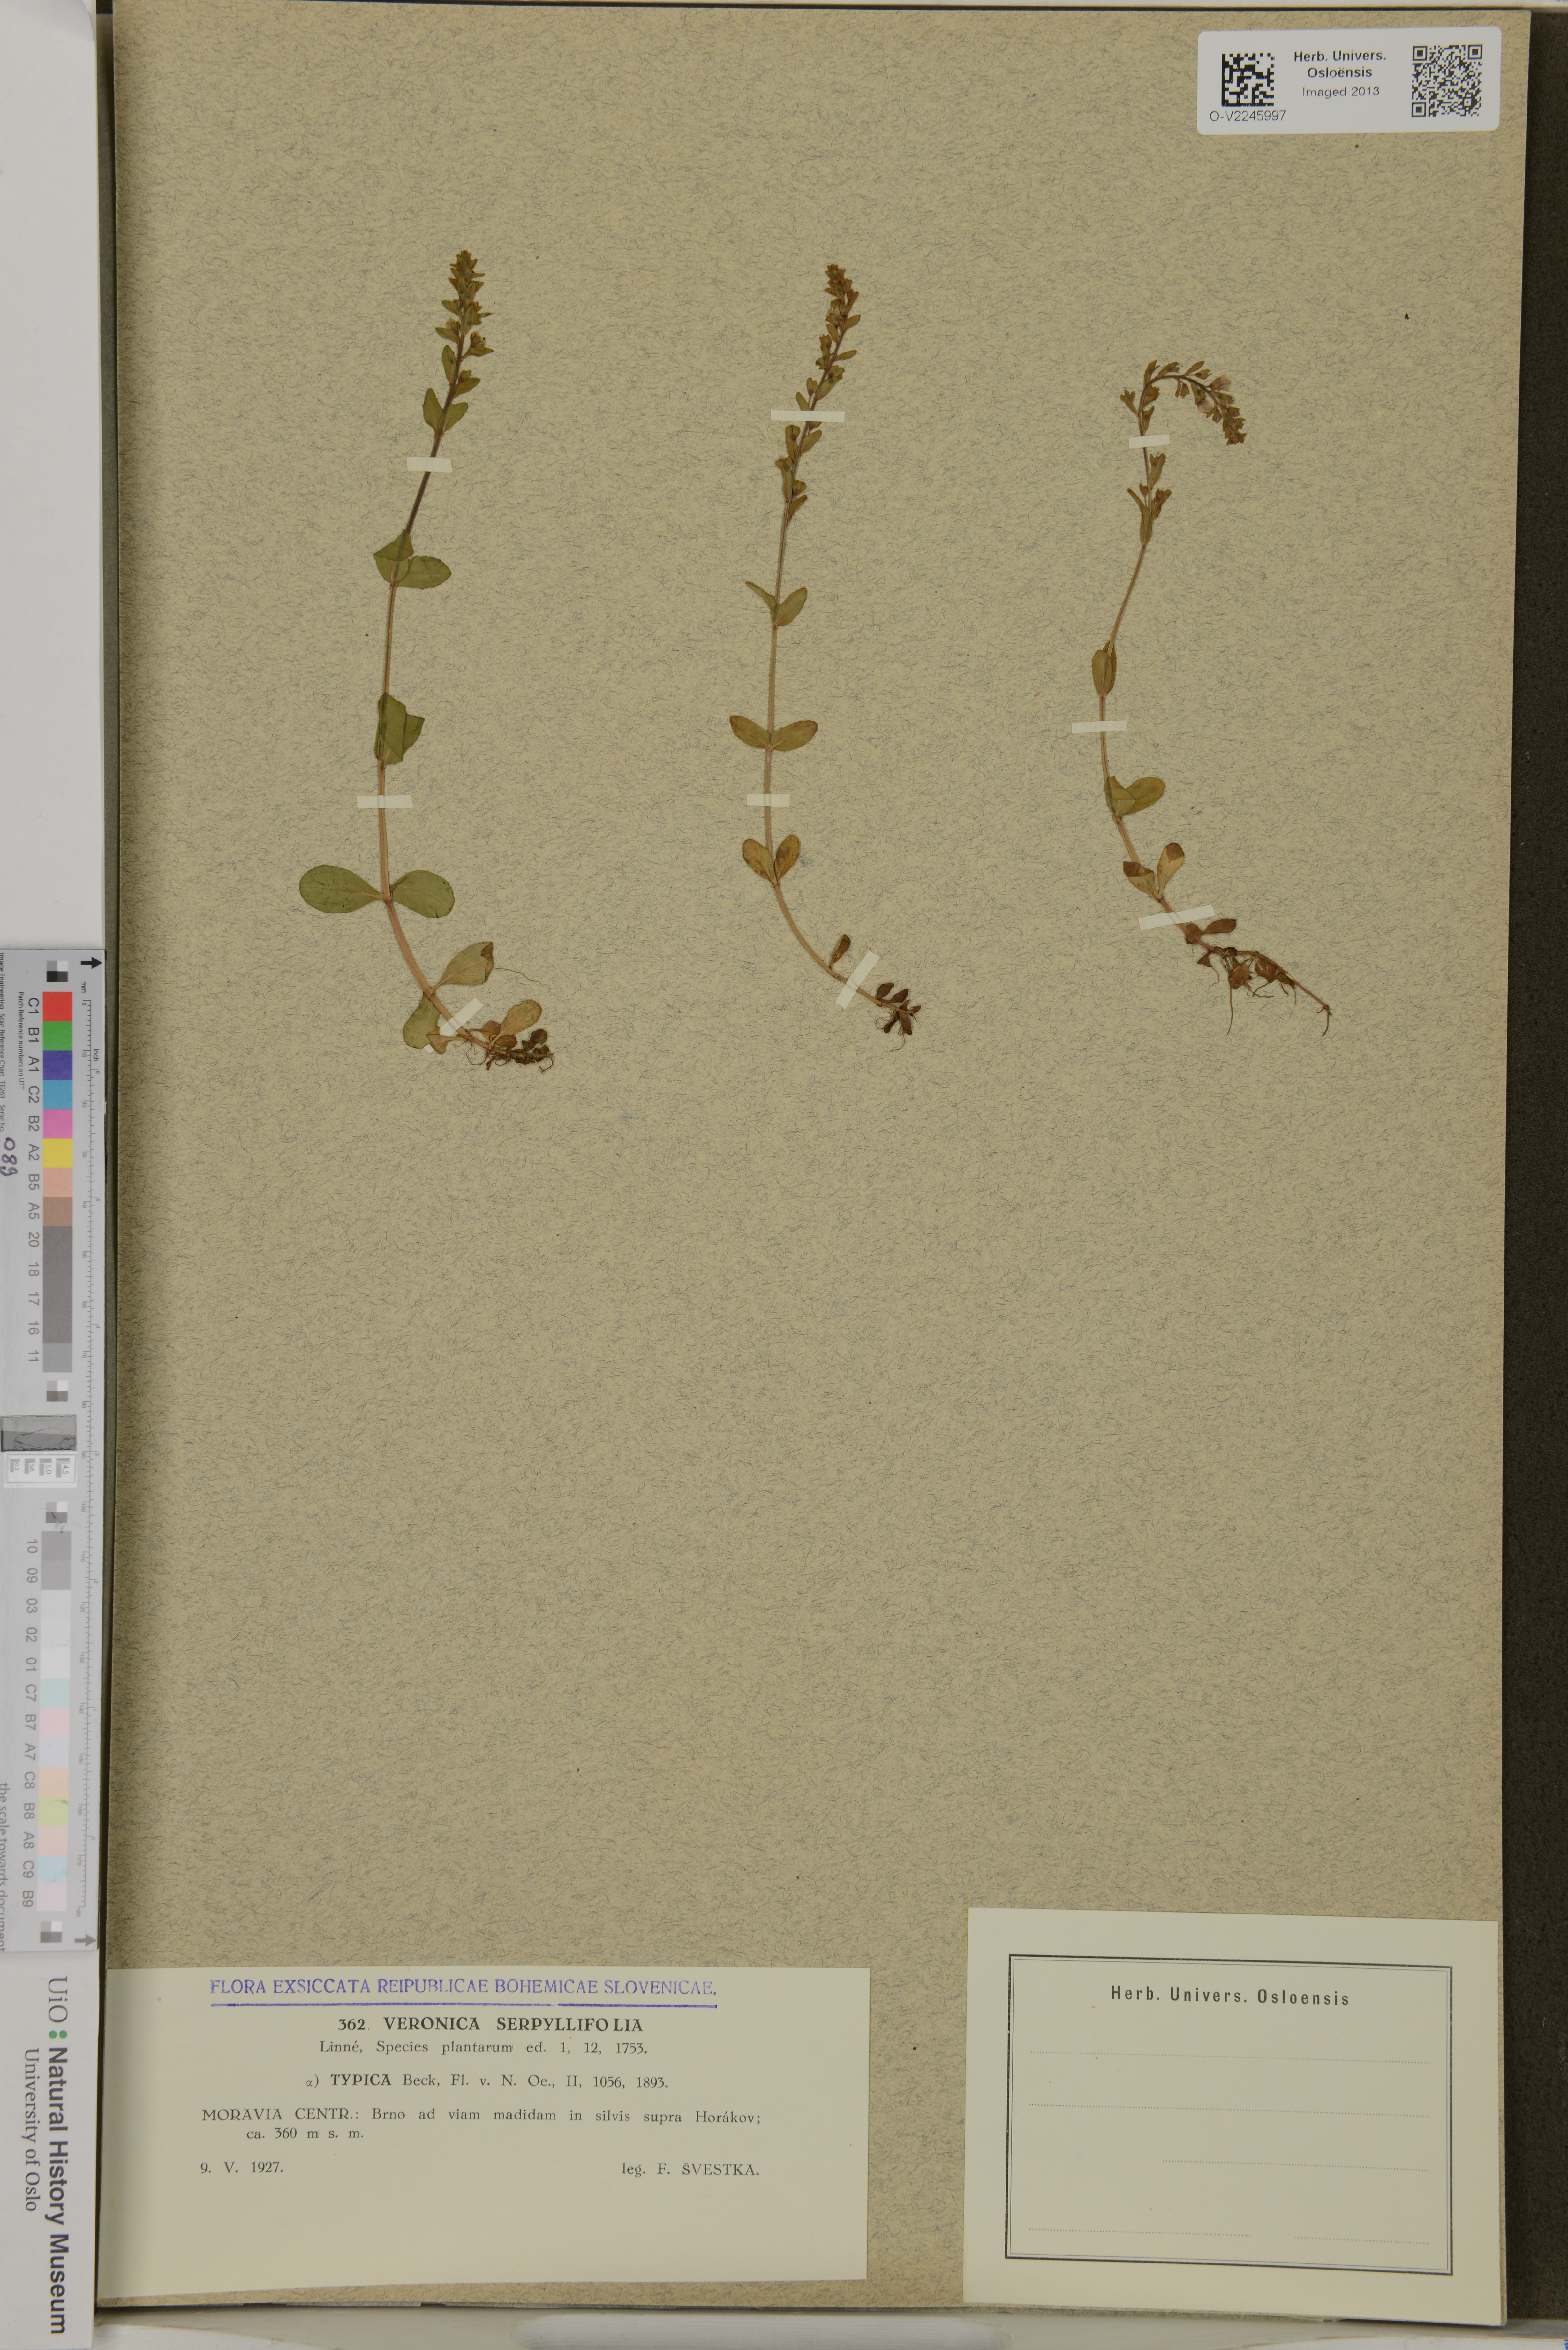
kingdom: Plantae
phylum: Tracheophyta
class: Magnoliopsida
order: Lamiales
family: Plantaginaceae
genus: Veronica
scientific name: Veronica serpyllifolia
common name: Thyme-leaved speedwell
